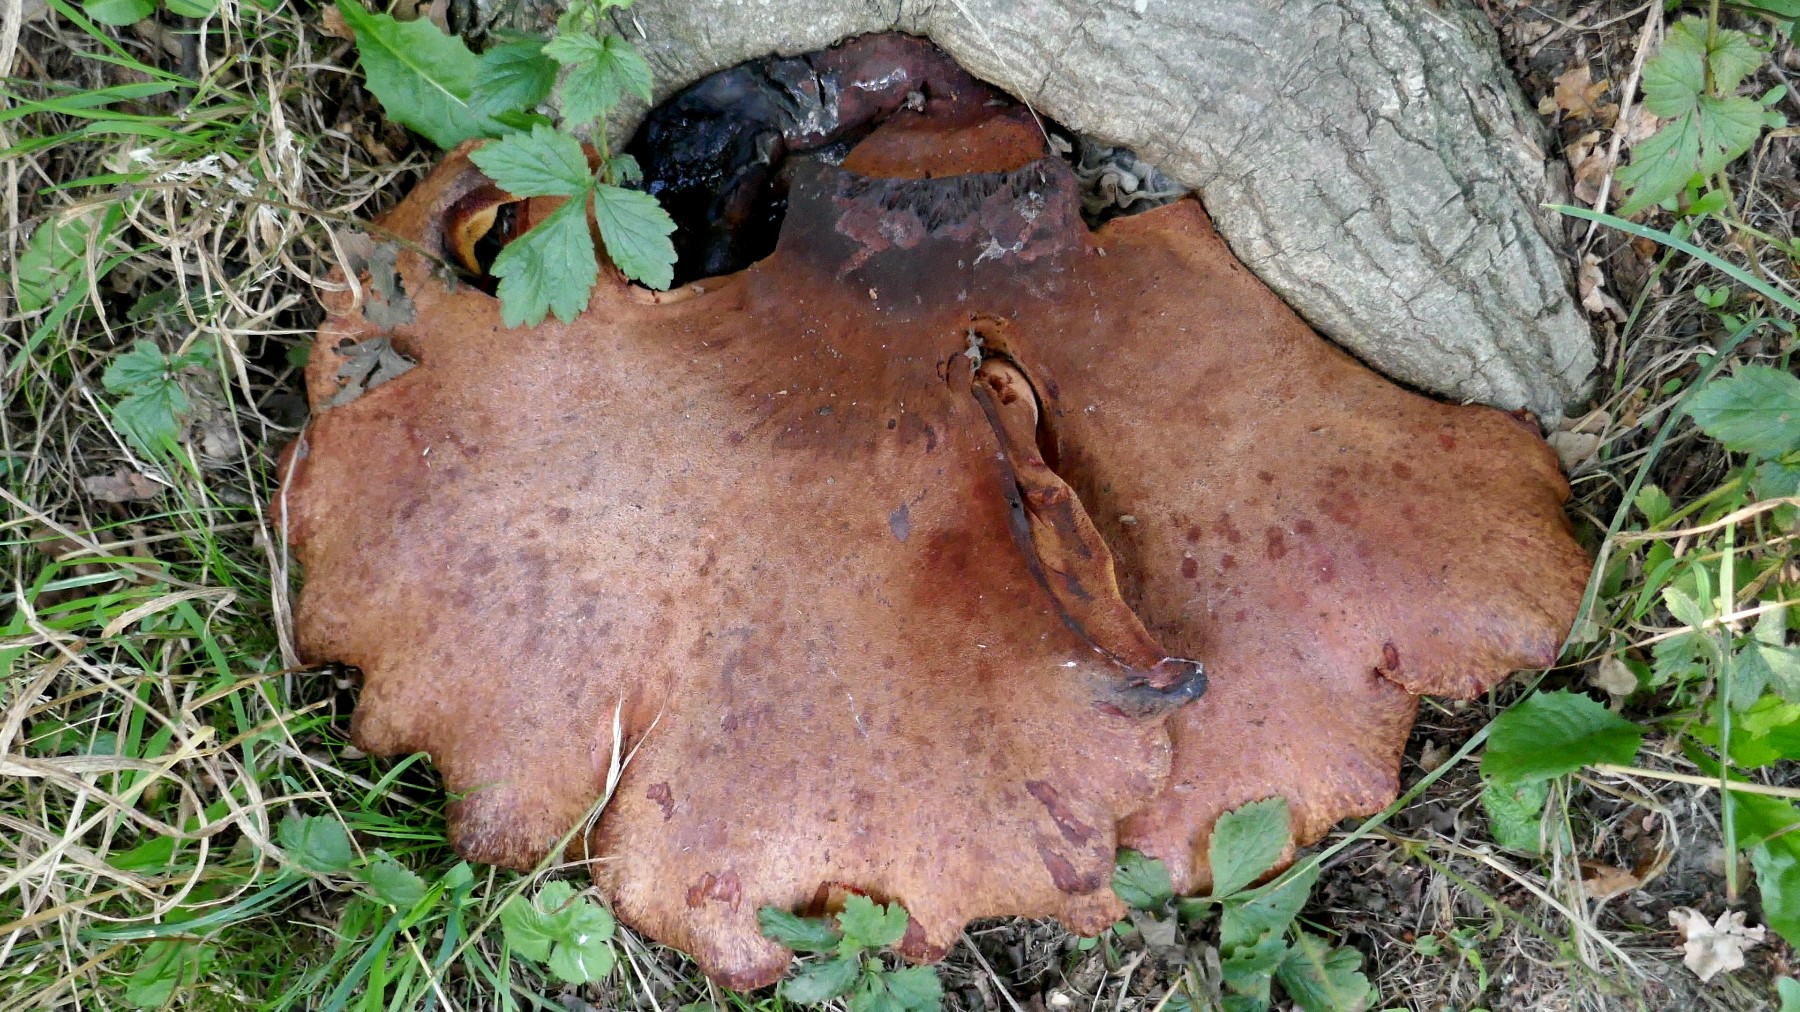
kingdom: Fungi
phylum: Basidiomycota
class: Agaricomycetes
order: Agaricales
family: Fistulinaceae
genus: Fistulina
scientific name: Fistulina hepatica
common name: oksetunge
